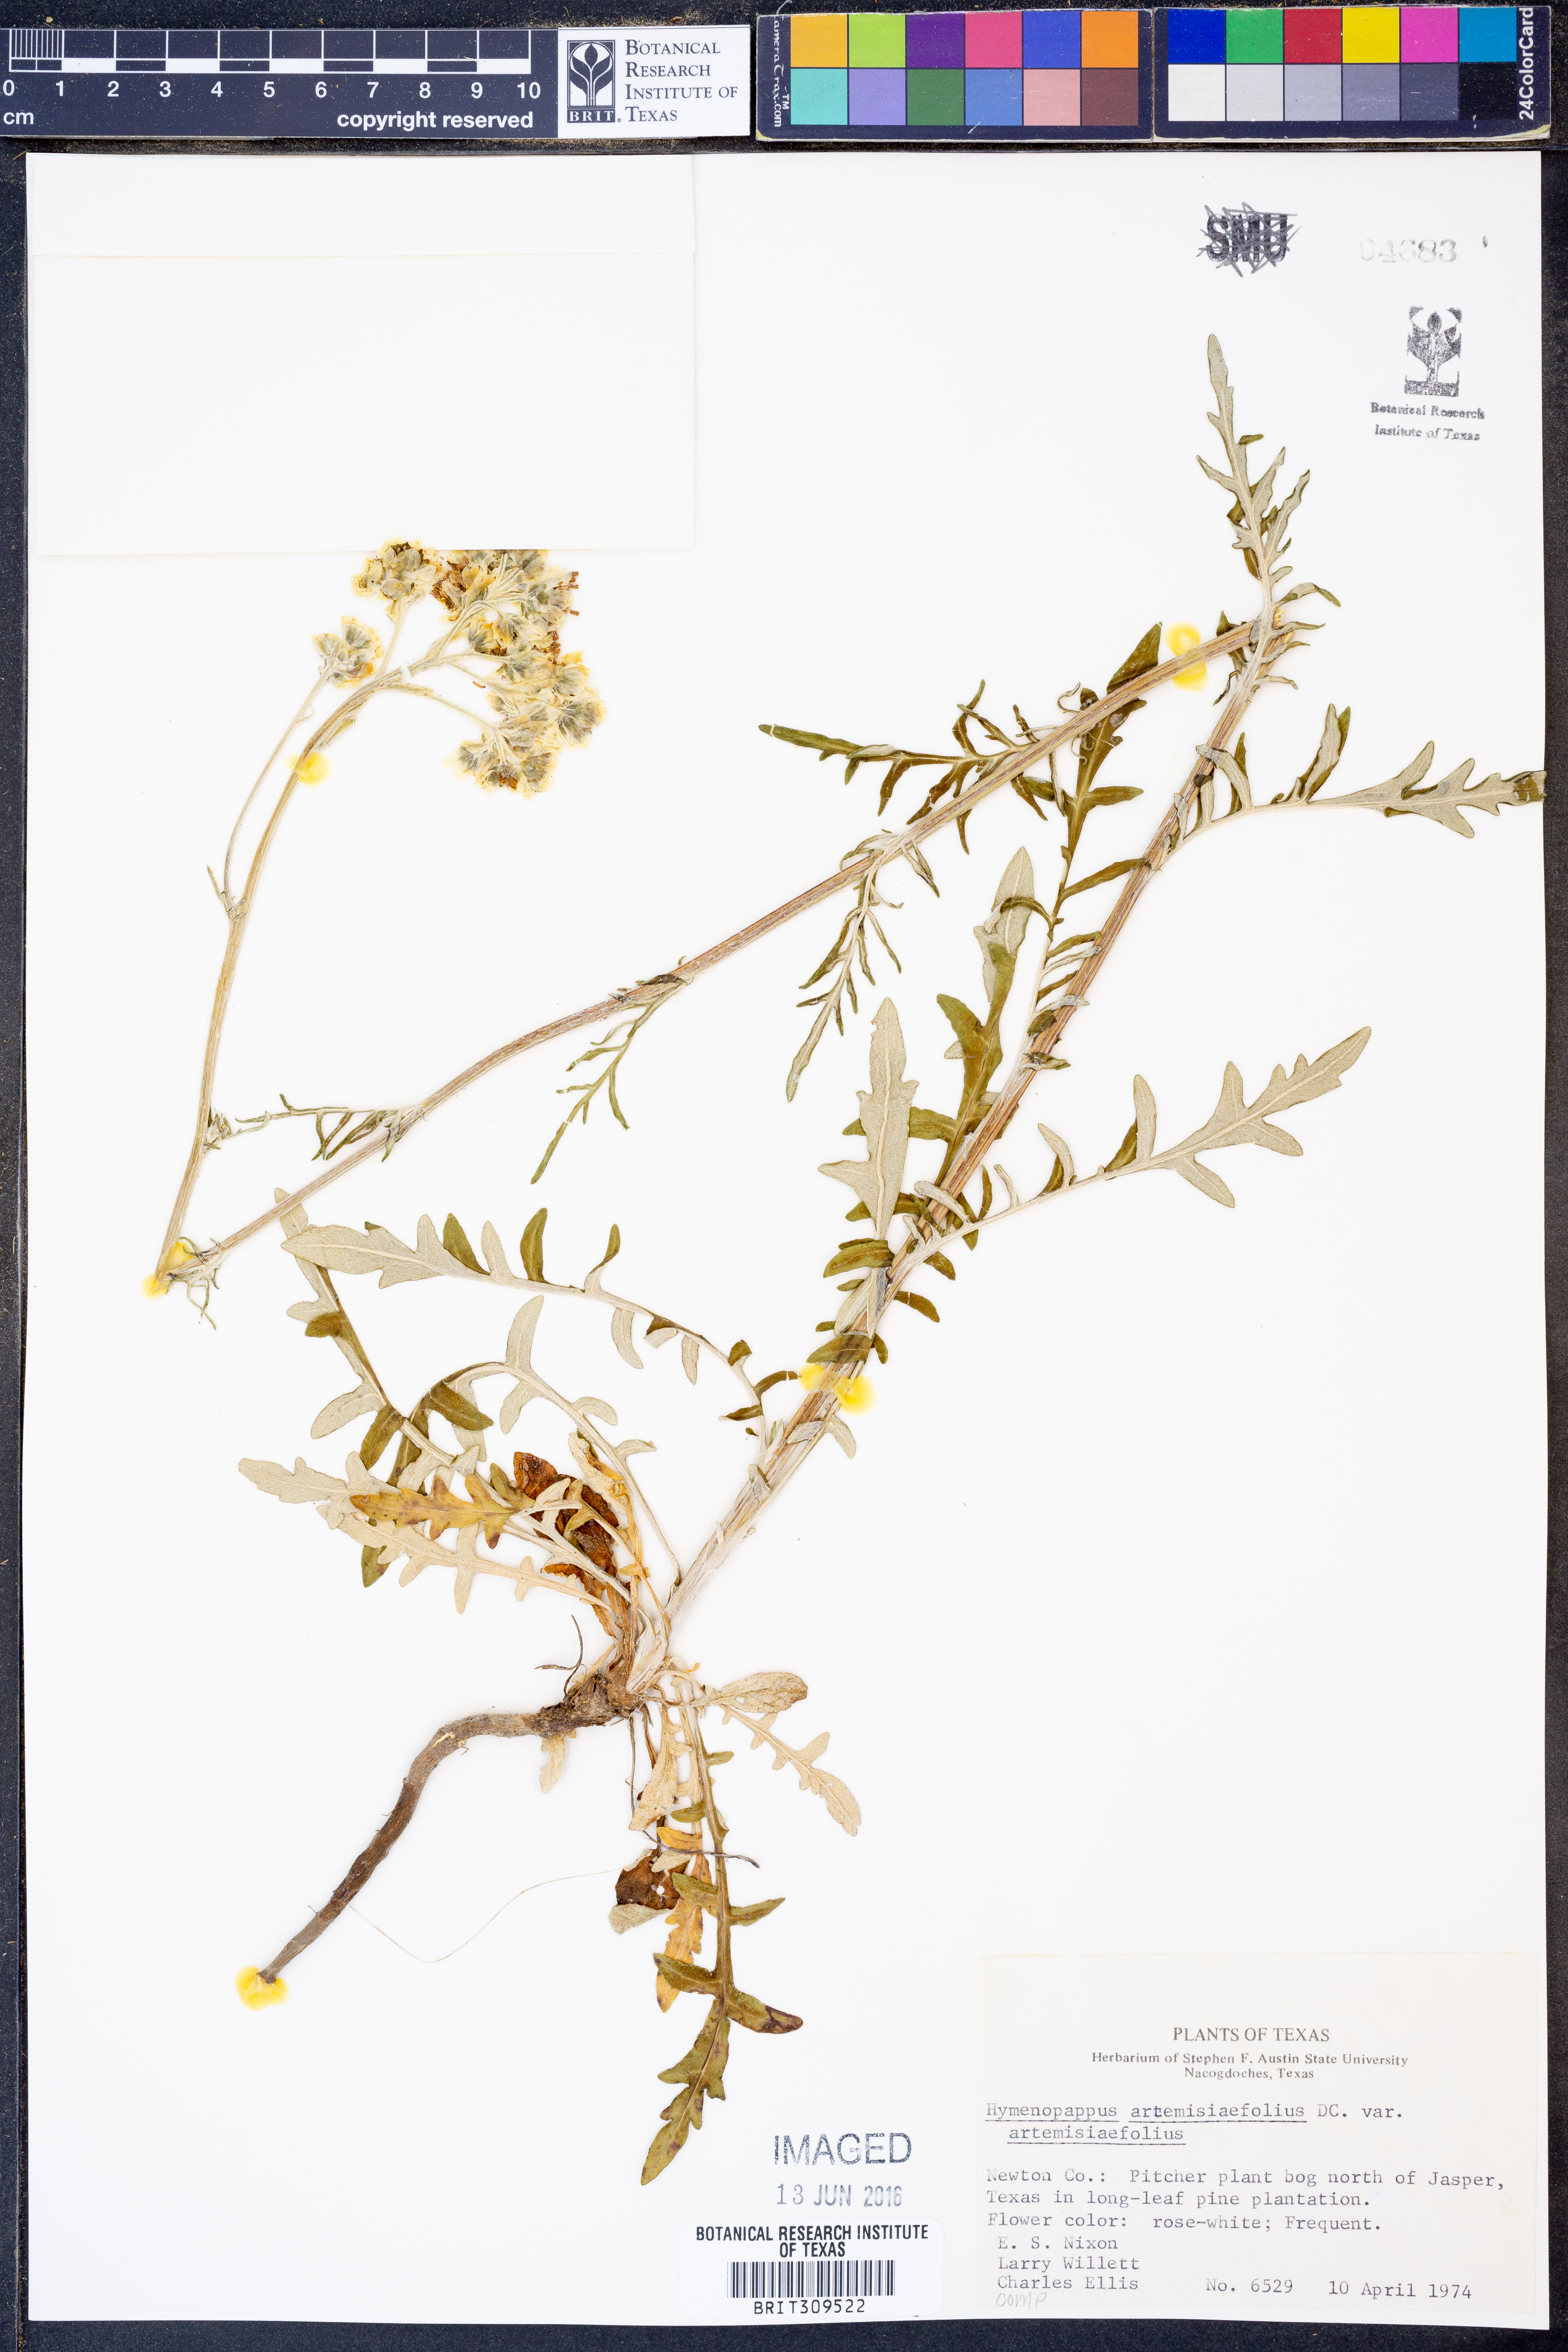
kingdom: Plantae
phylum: Tracheophyta
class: Magnoliopsida
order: Asterales
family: Asteraceae
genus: Hymenopappus
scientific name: Hymenopappus artemisiifolius
